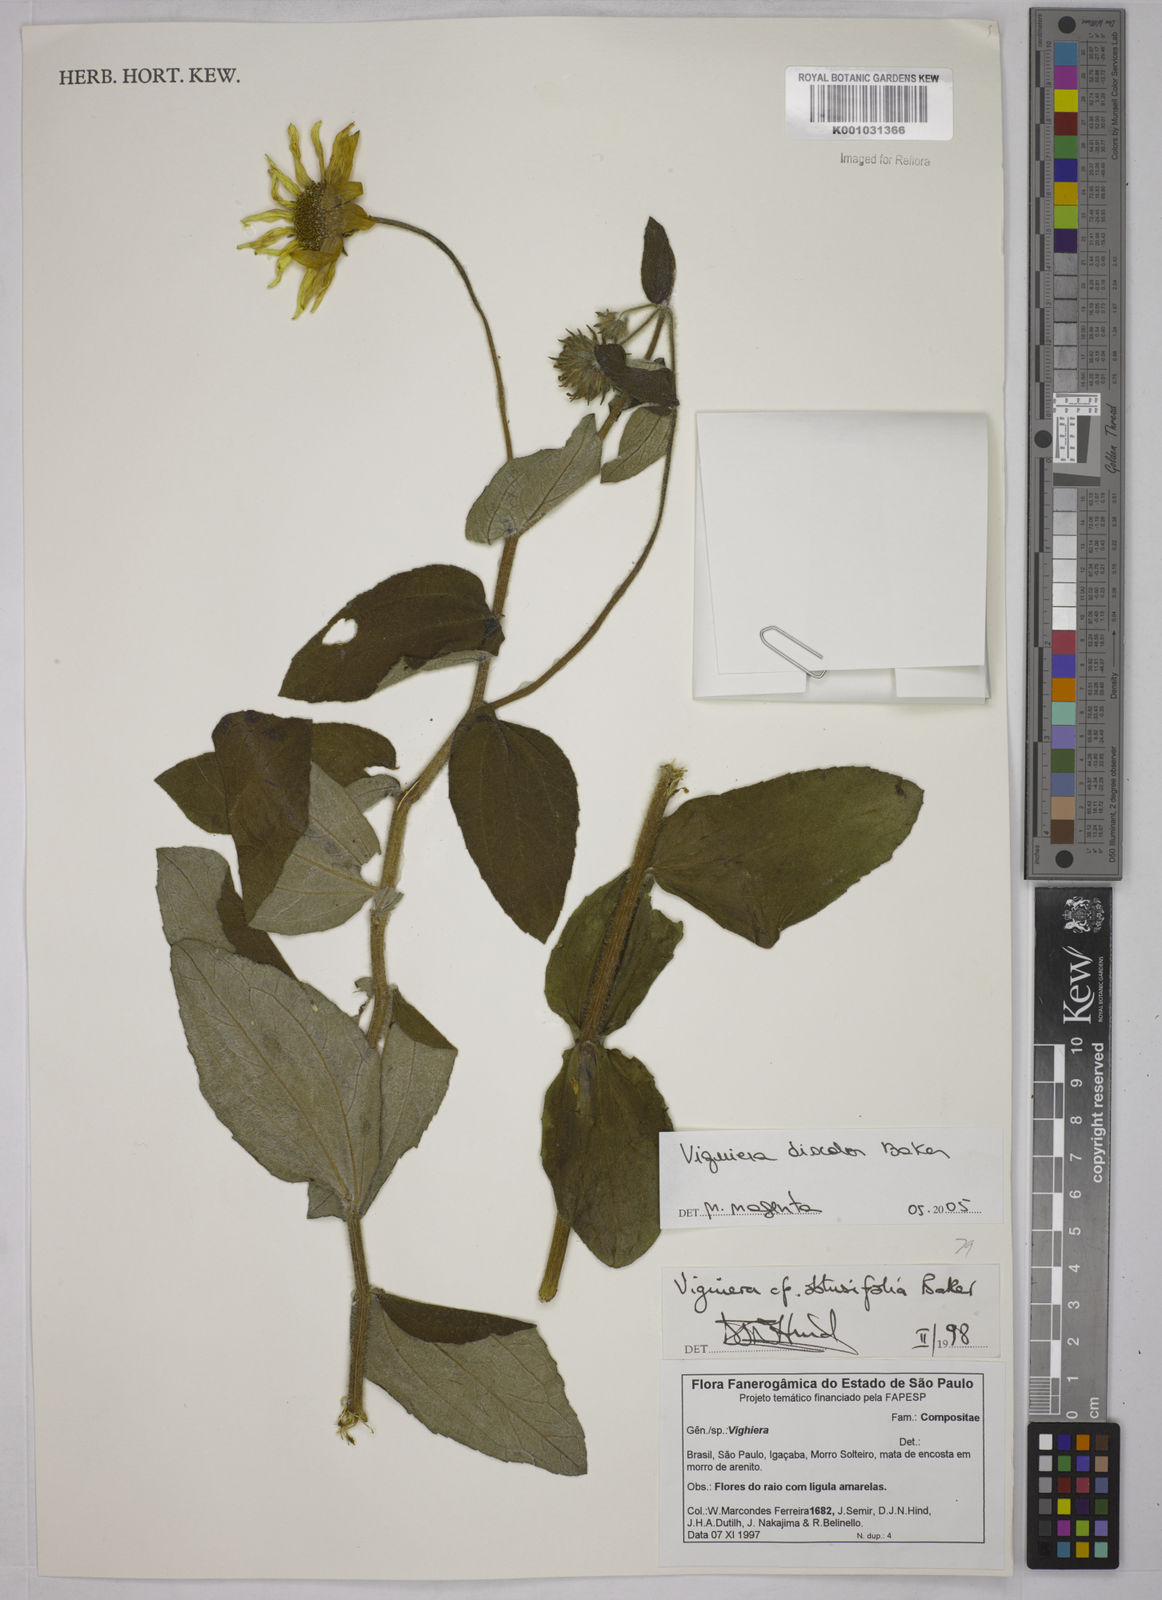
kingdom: Plantae
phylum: Tracheophyta
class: Magnoliopsida
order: Asterales
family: Asteraceae
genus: Aldama
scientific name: Aldama discolor
